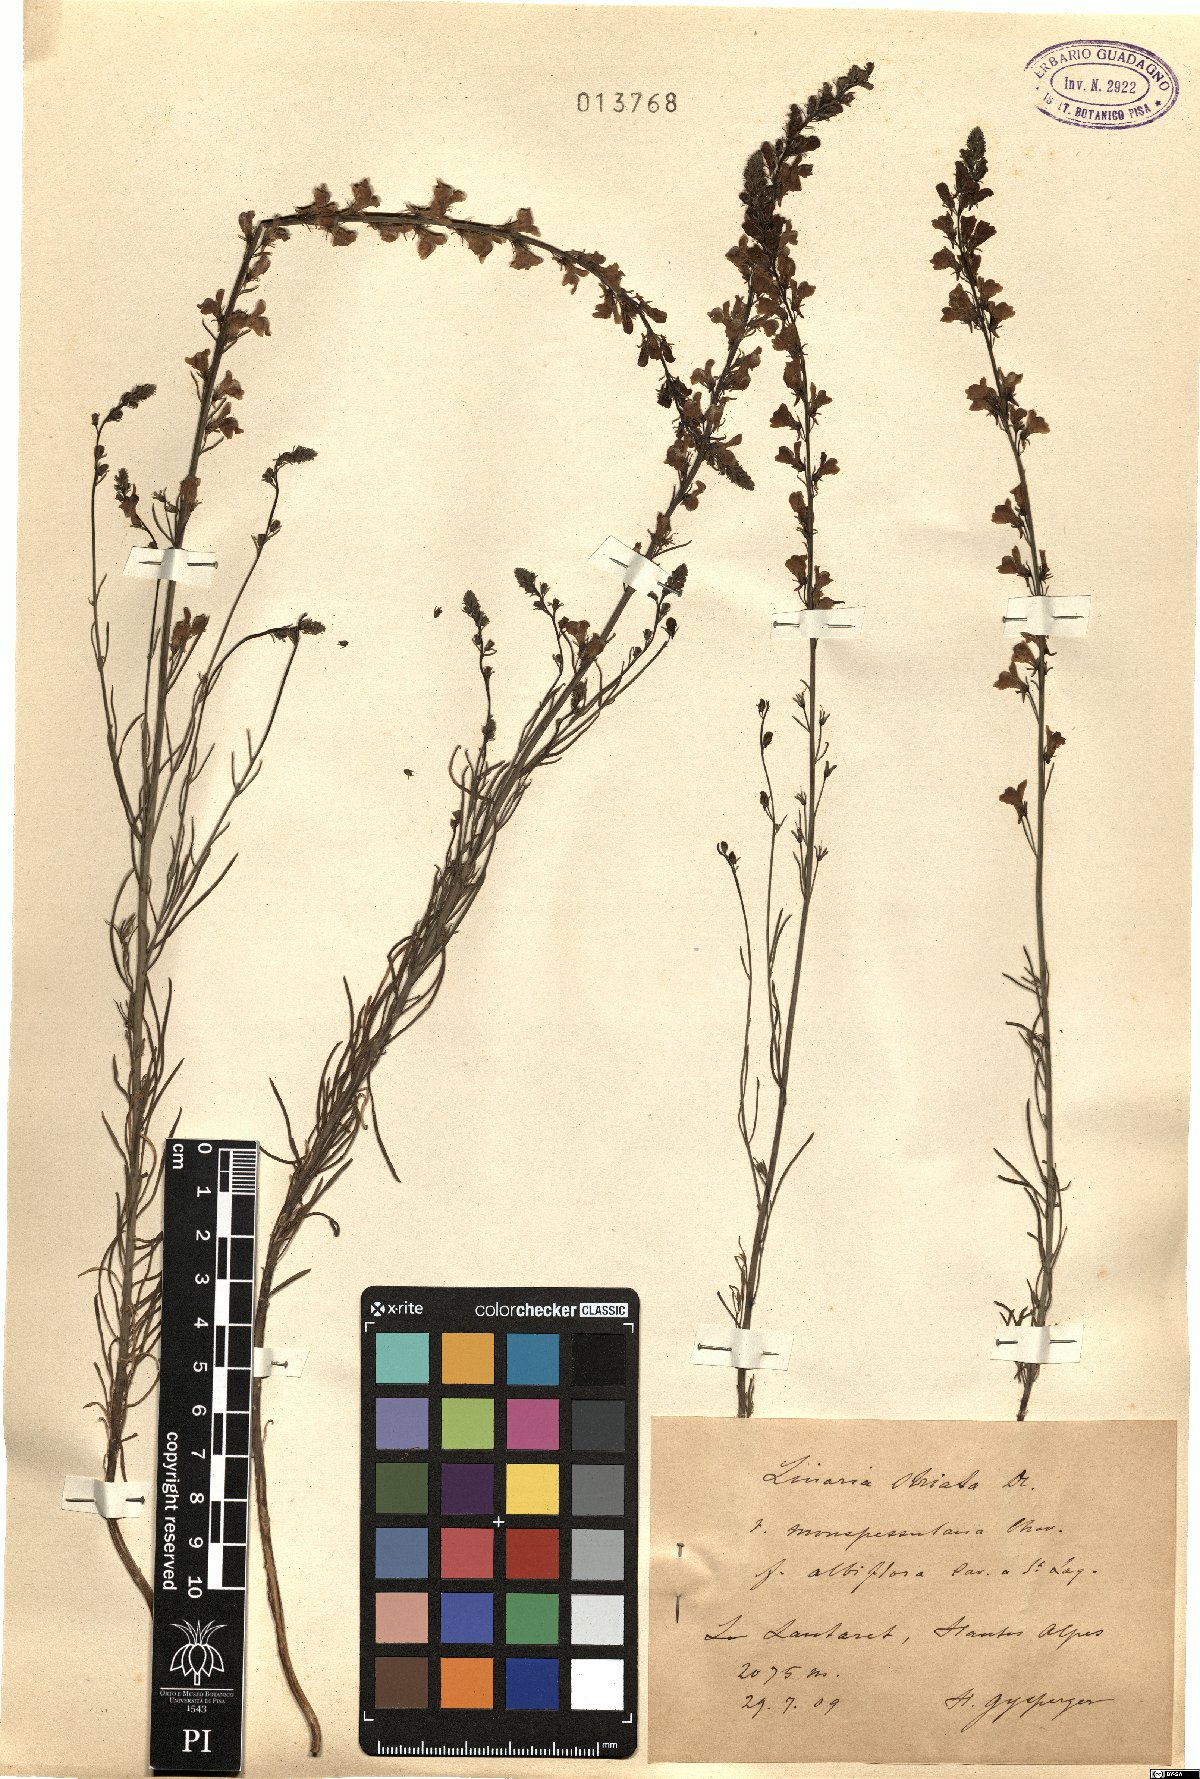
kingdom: Plantae
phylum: Tracheophyta
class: Magnoliopsida
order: Lamiales
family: Plantaginaceae
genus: Linaria
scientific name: Linaria repens
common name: Pale toadflax
